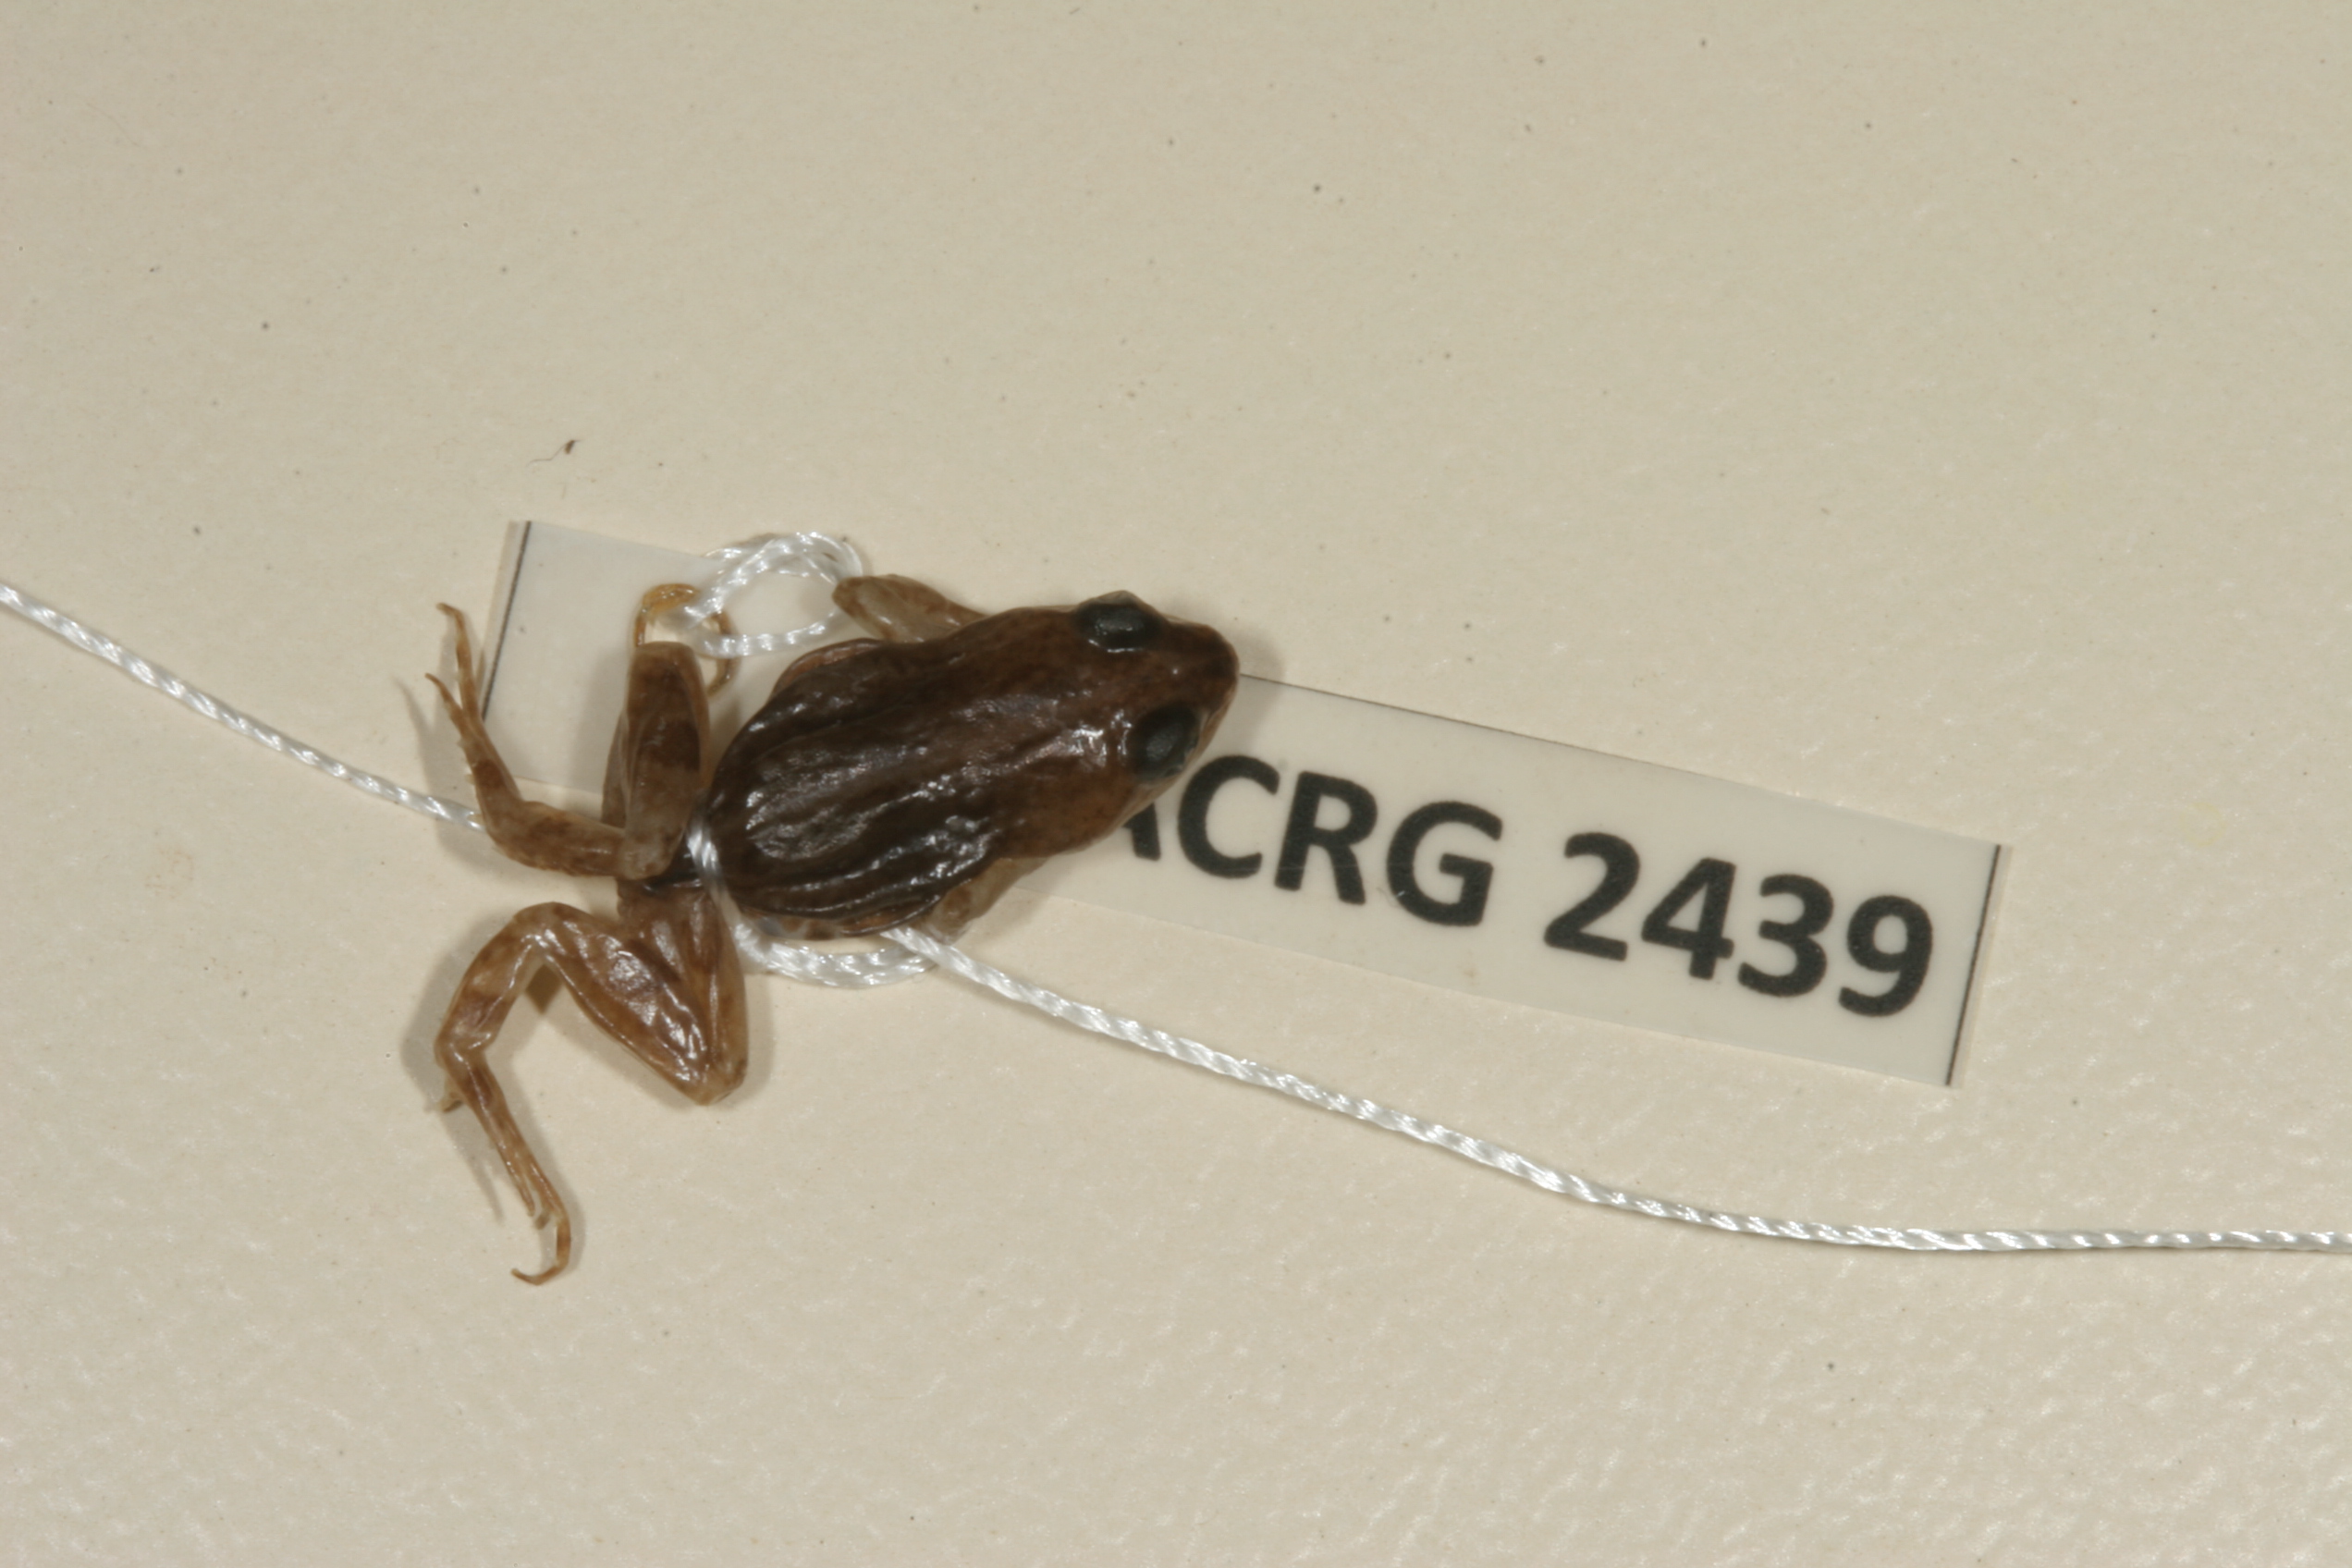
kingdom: Animalia
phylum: Chordata
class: Amphibia
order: Anura
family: Pyxicephalidae
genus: Cacosternum
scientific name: Cacosternum boettgeri
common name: Boettger's frog
